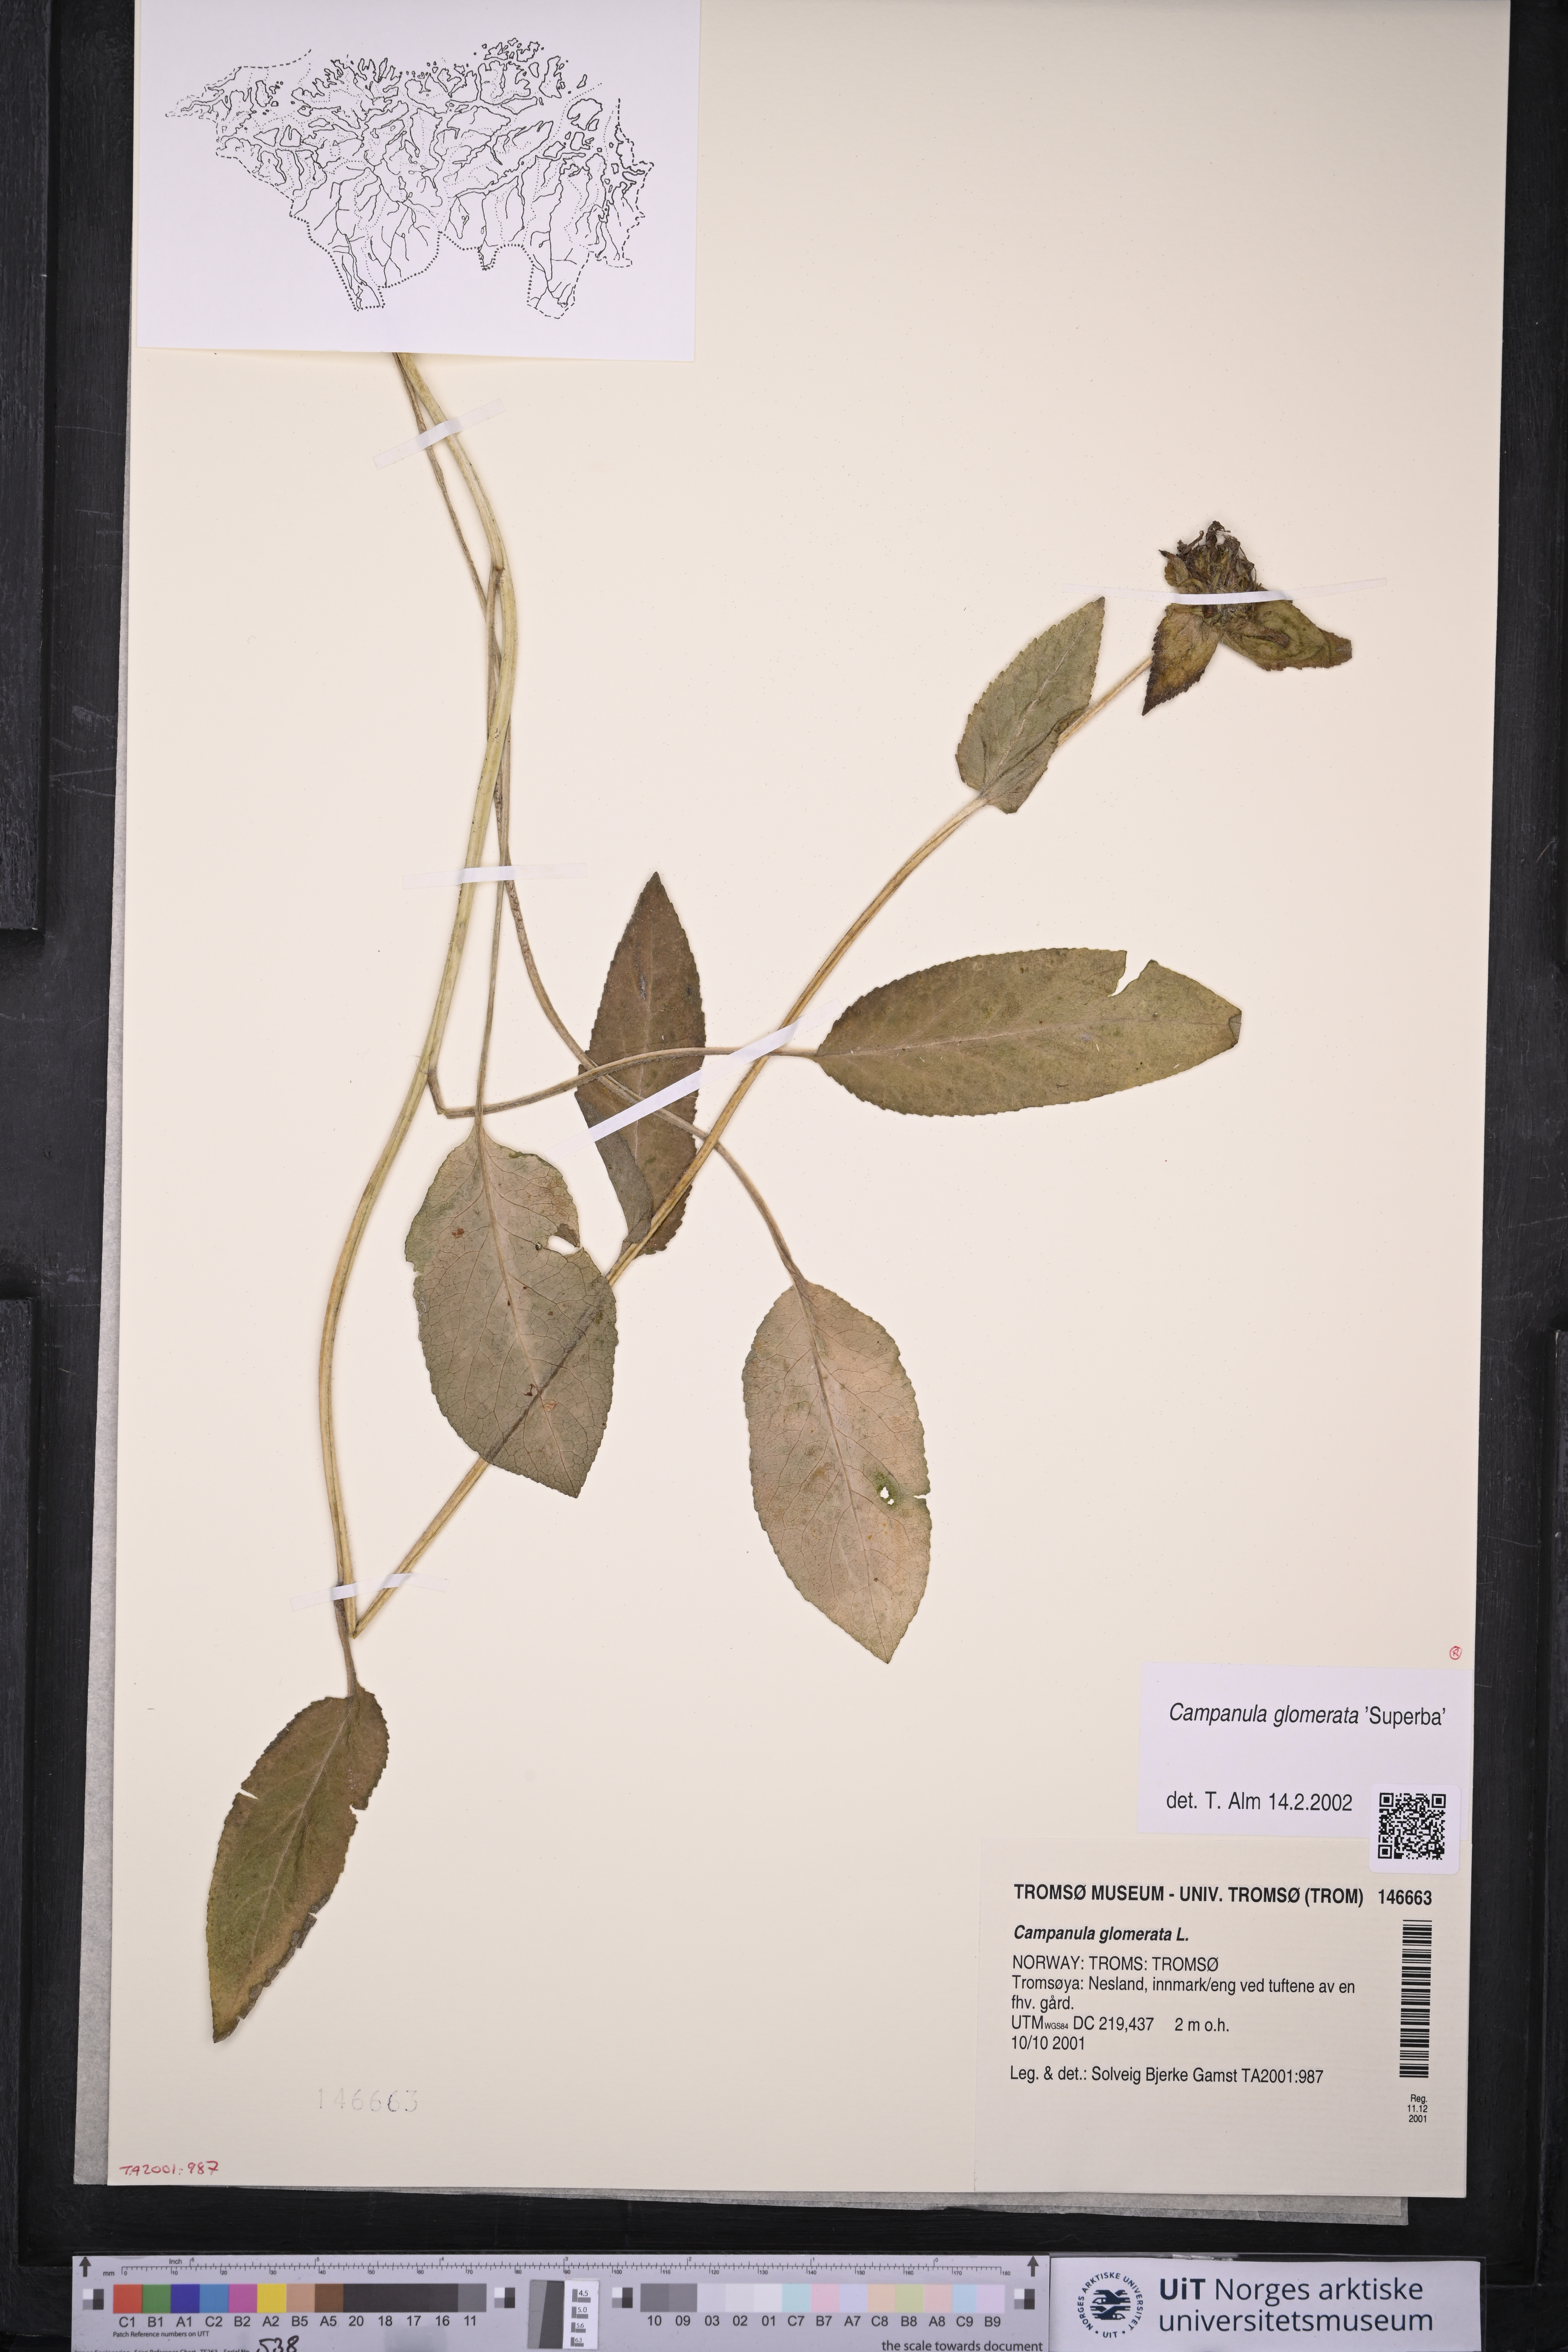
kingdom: Plantae
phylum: Tracheophyta
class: Magnoliopsida
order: Asterales
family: Campanulaceae
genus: Campanula
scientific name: Campanula glomerata
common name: Clustered bellflower
